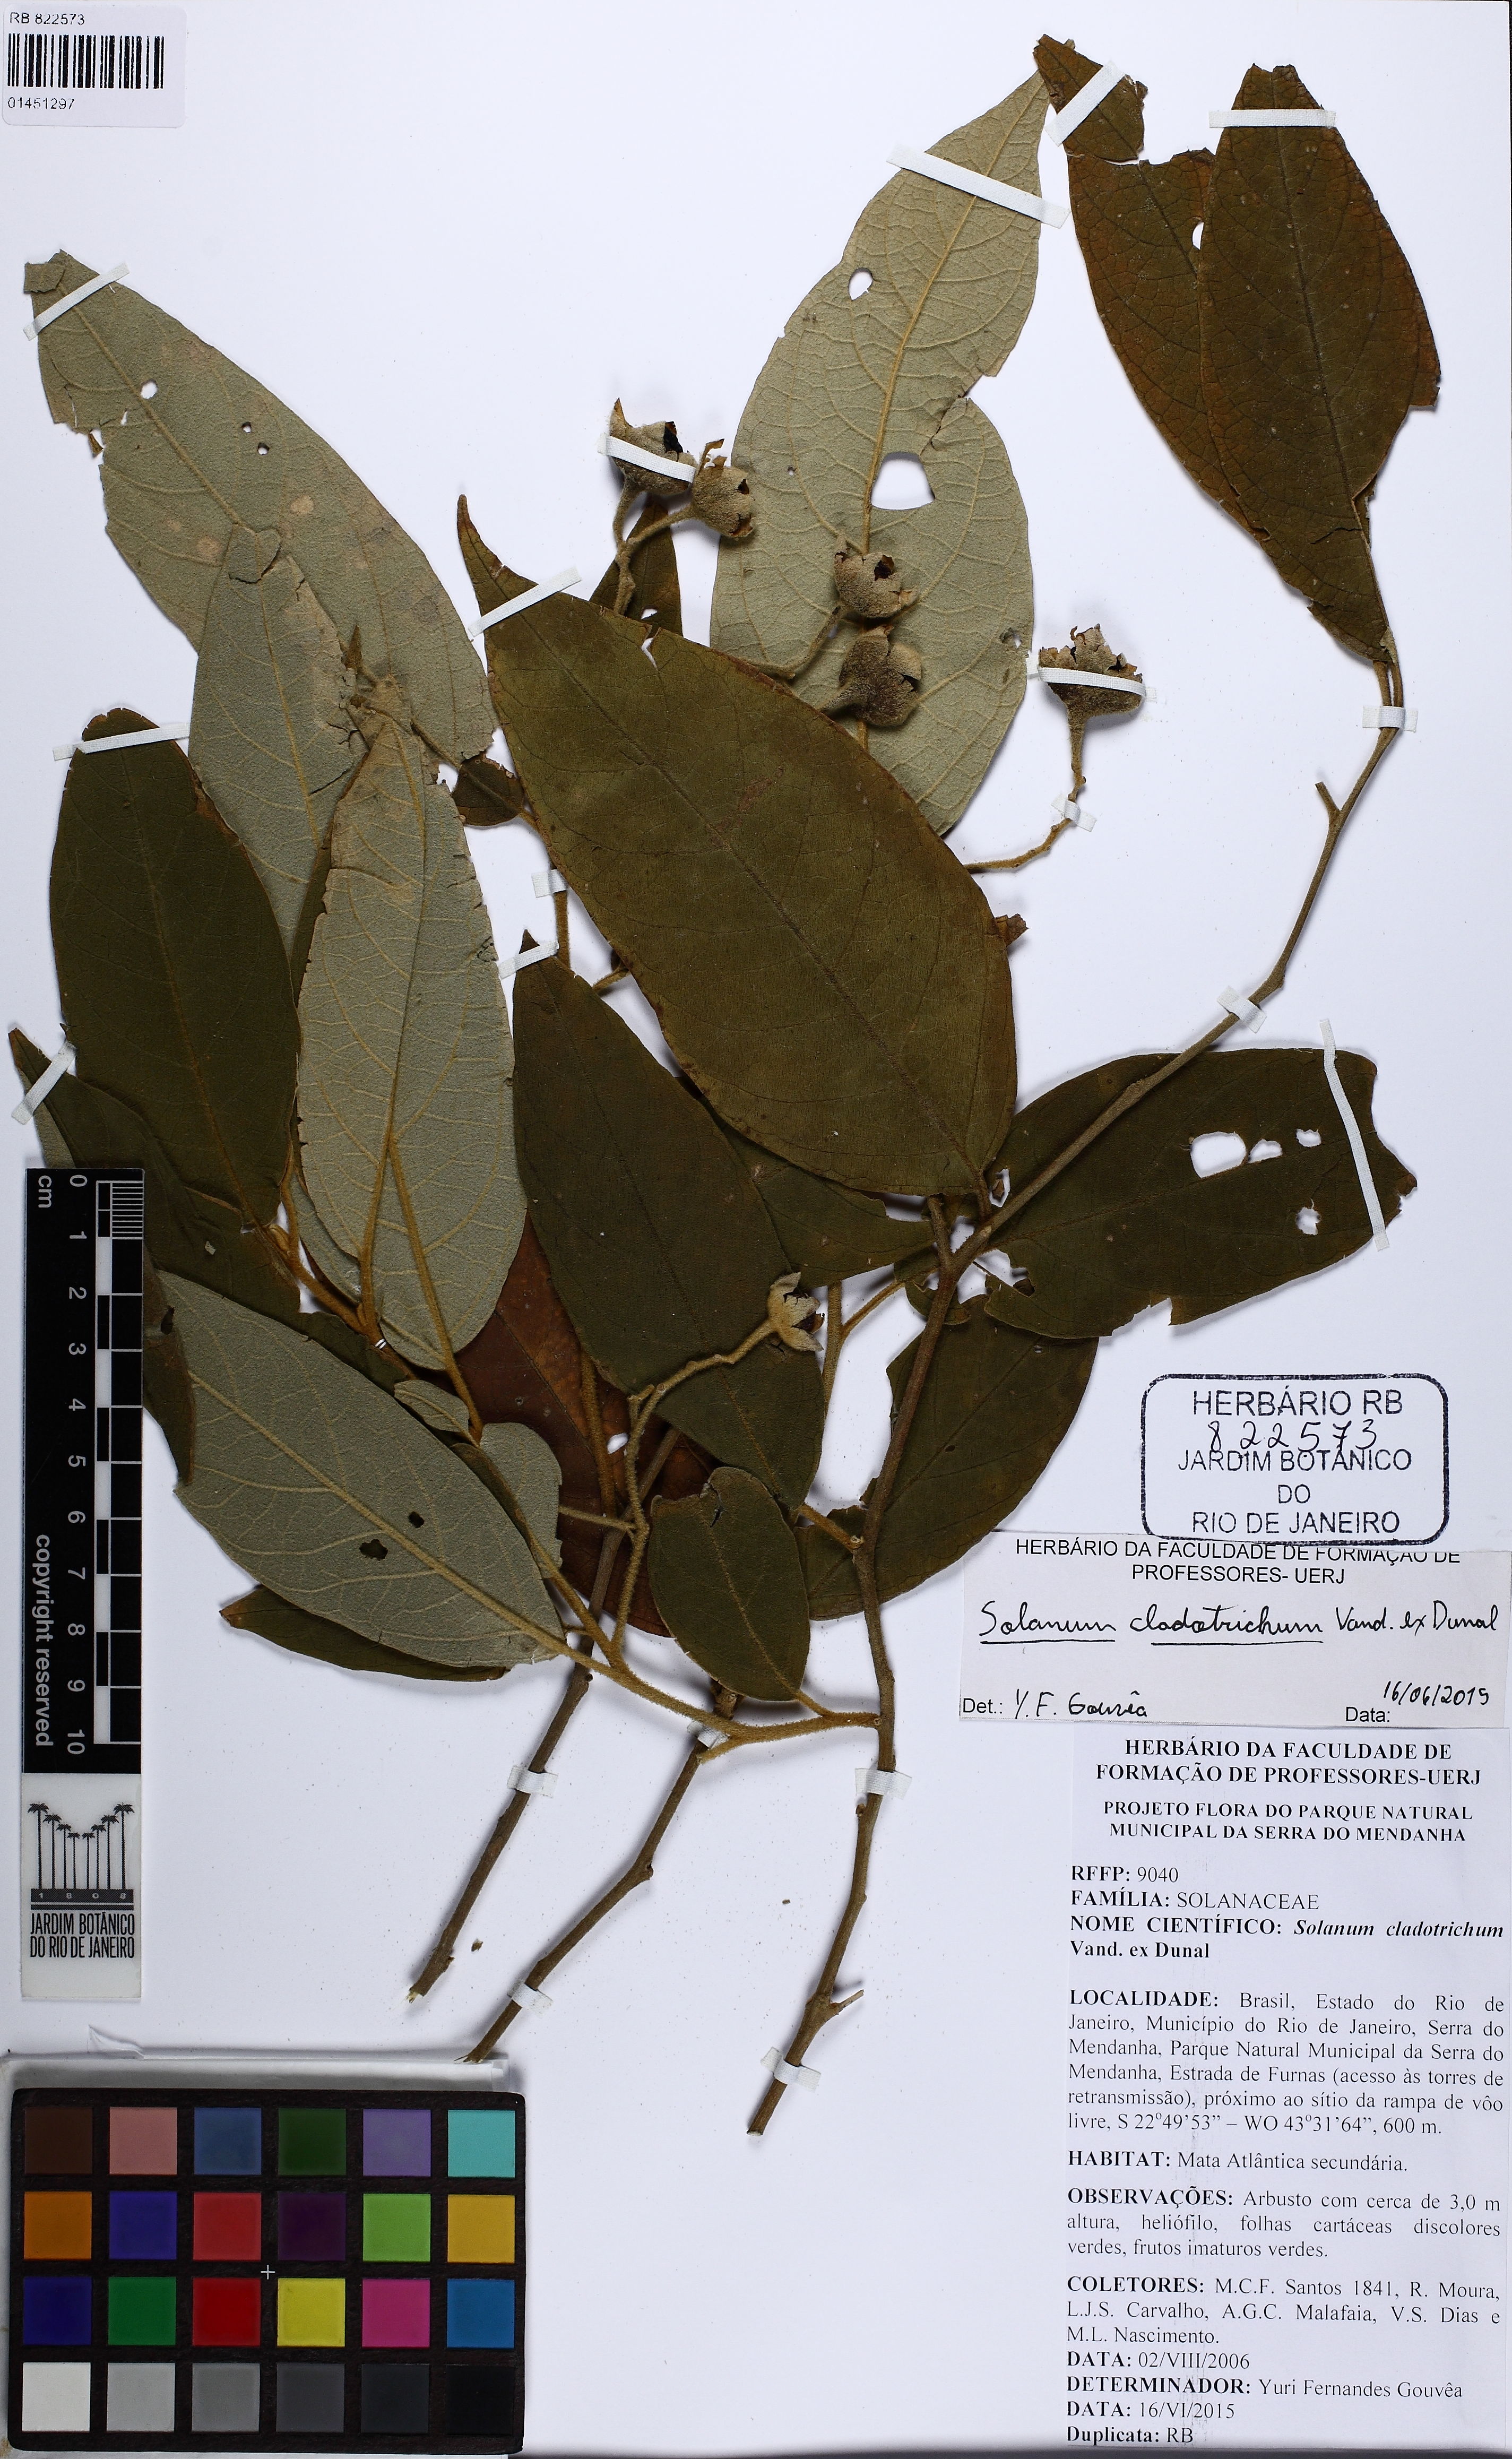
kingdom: Plantae
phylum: Tracheophyta
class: Magnoliopsida
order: Solanales
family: Solanaceae
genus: Solanum
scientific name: Solanum jussiaei
